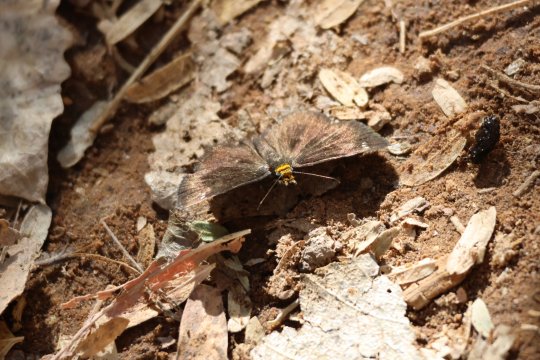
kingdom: Animalia
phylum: Arthropoda
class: Insecta
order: Lepidoptera
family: Hesperiidae
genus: Staphylus
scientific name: Staphylus ceos
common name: Golden-headed Scallopwing
